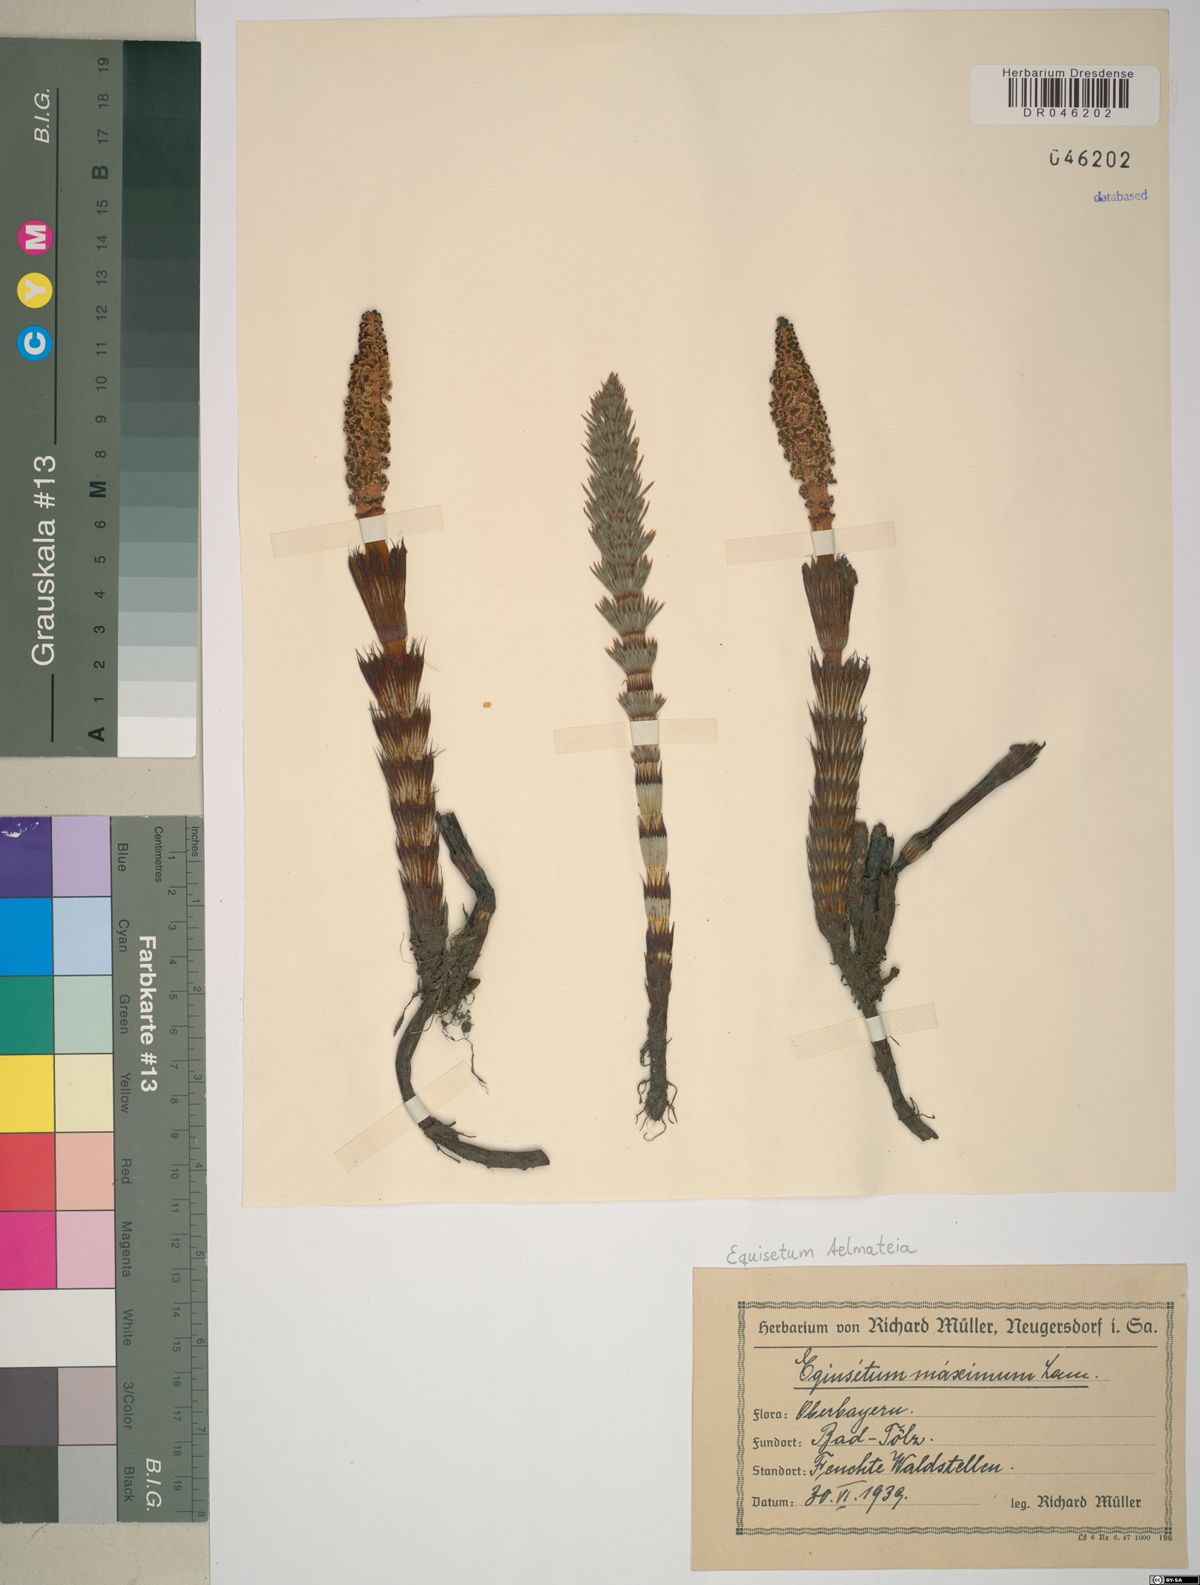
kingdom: Plantae
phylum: Tracheophyta
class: Polypodiopsida
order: Equisetales
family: Equisetaceae
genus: Equisetum
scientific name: Equisetum telmateia
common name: Great horsetail
